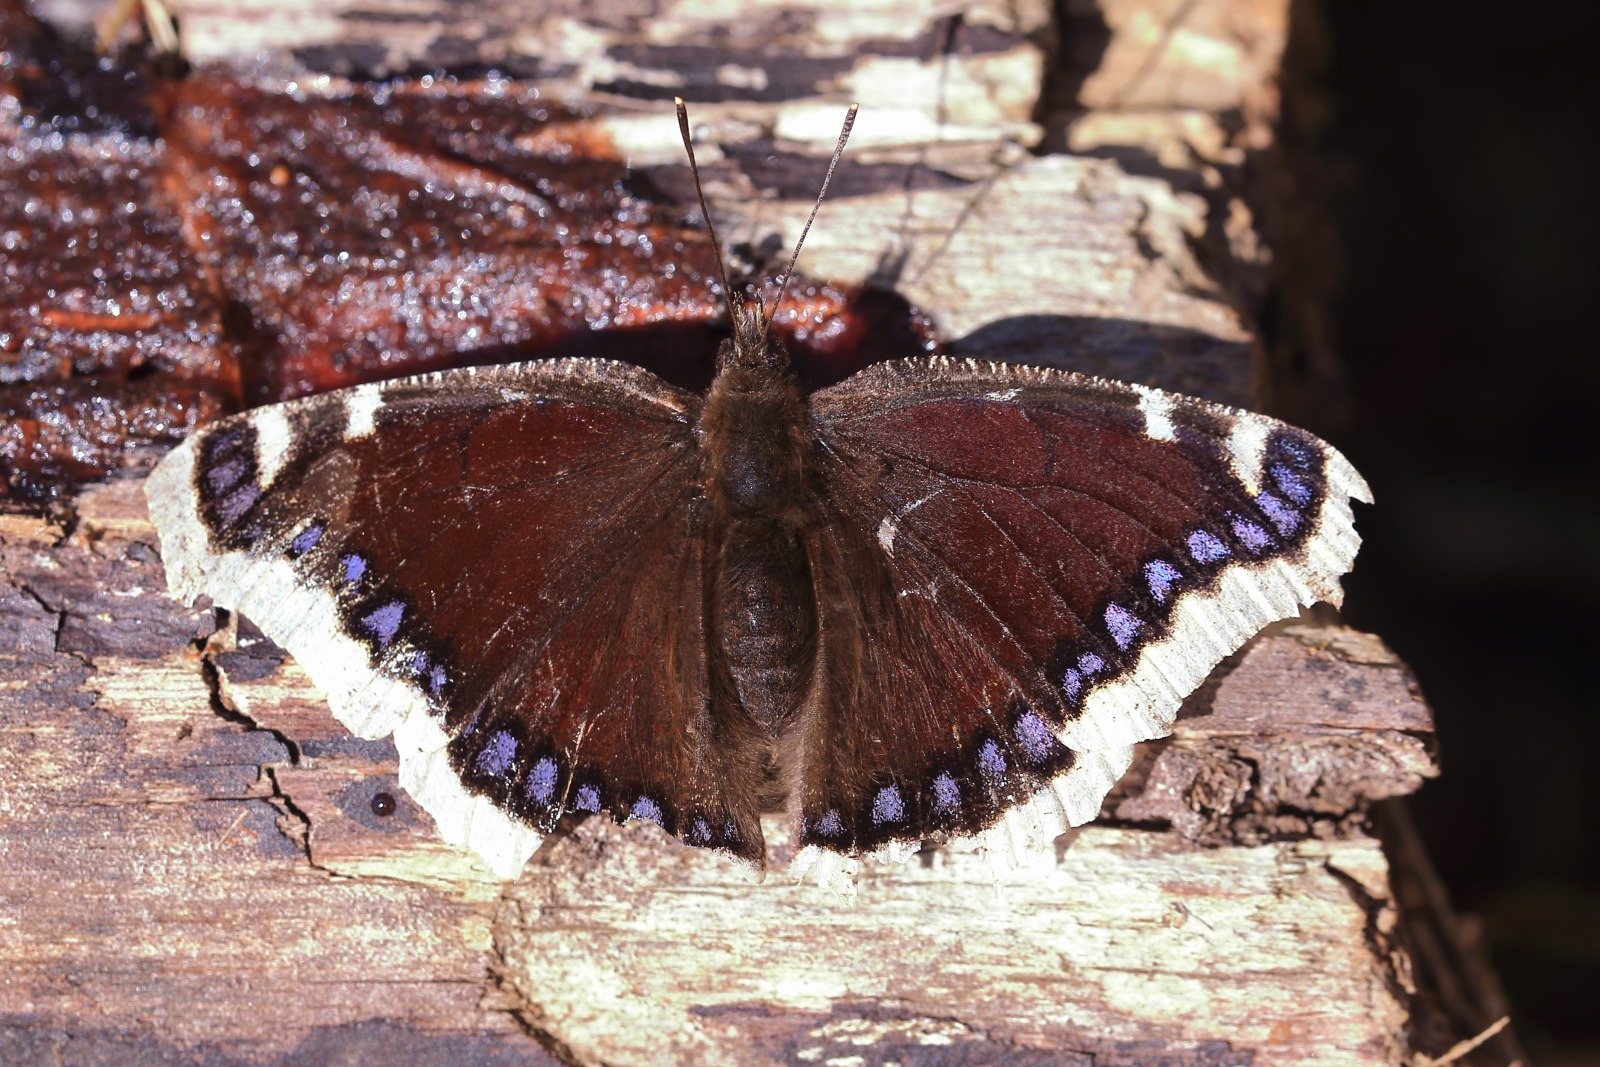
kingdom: Animalia
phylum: Arthropoda
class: Insecta
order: Lepidoptera
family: Nymphalidae
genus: Nymphalis
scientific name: Nymphalis antiopa
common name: Sørgekåbe
